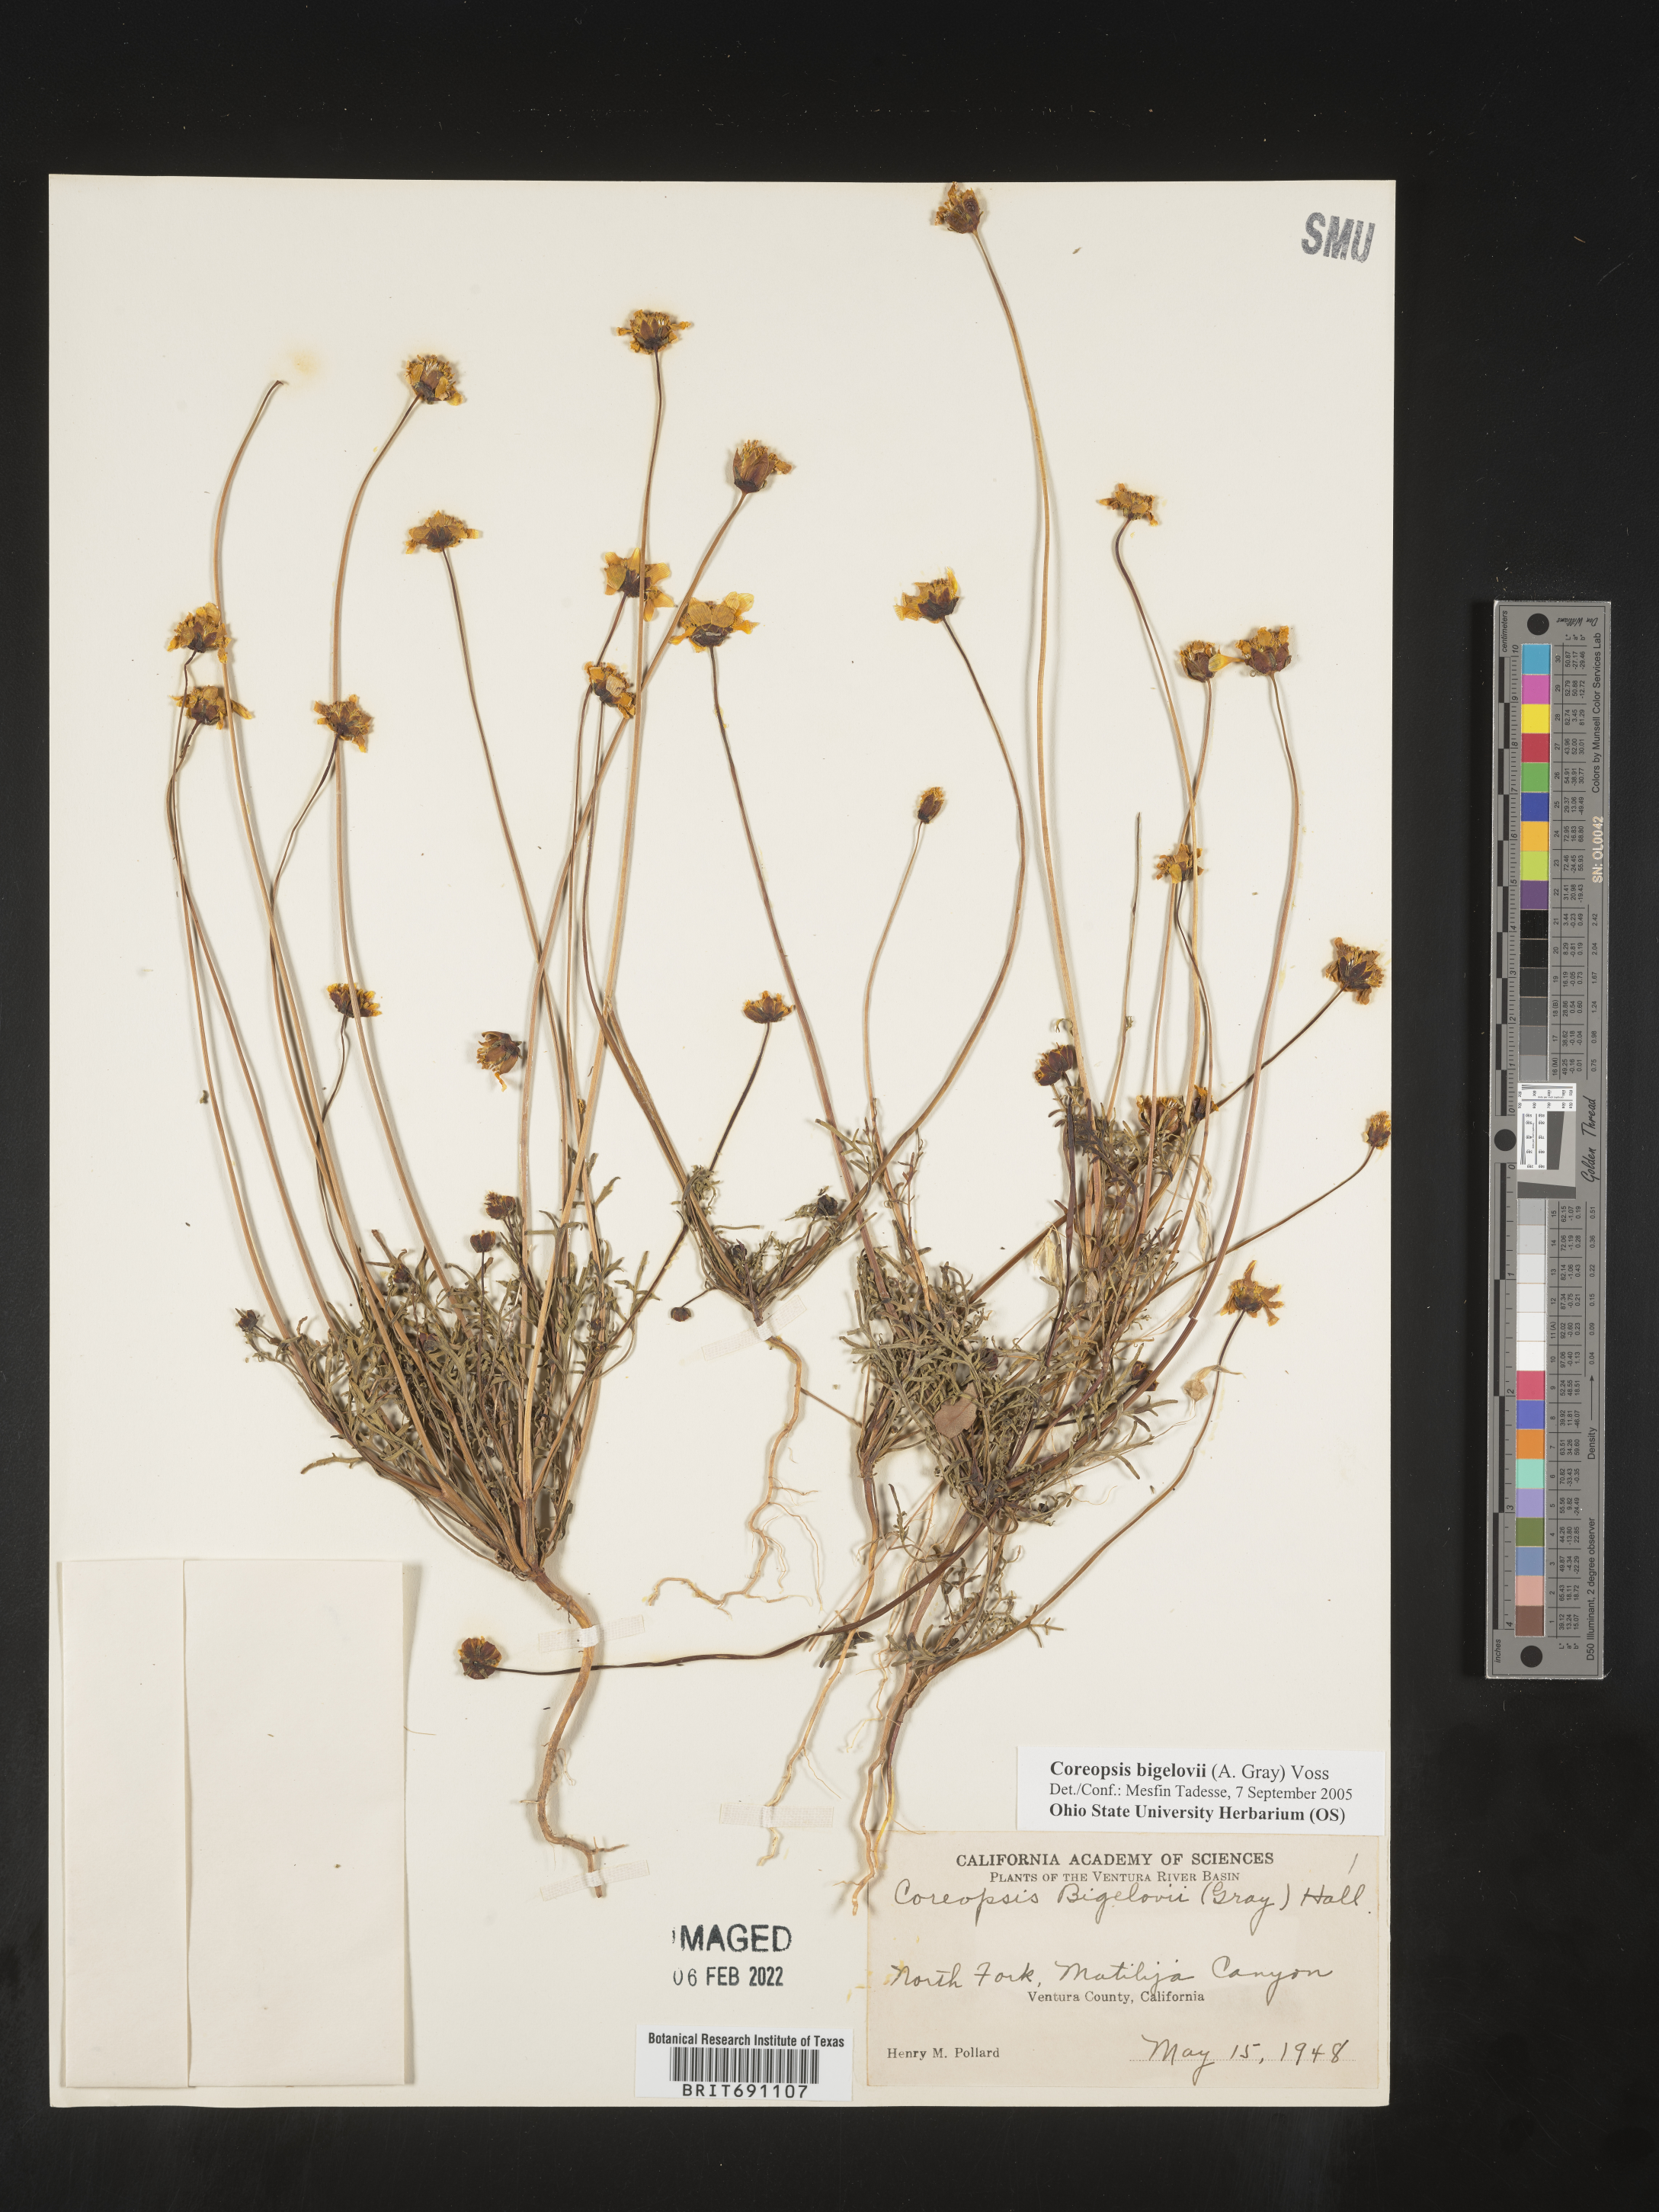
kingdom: Plantae
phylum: Tracheophyta
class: Magnoliopsida
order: Asterales
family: Asteraceae
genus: Coreopsis
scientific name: Coreopsis
